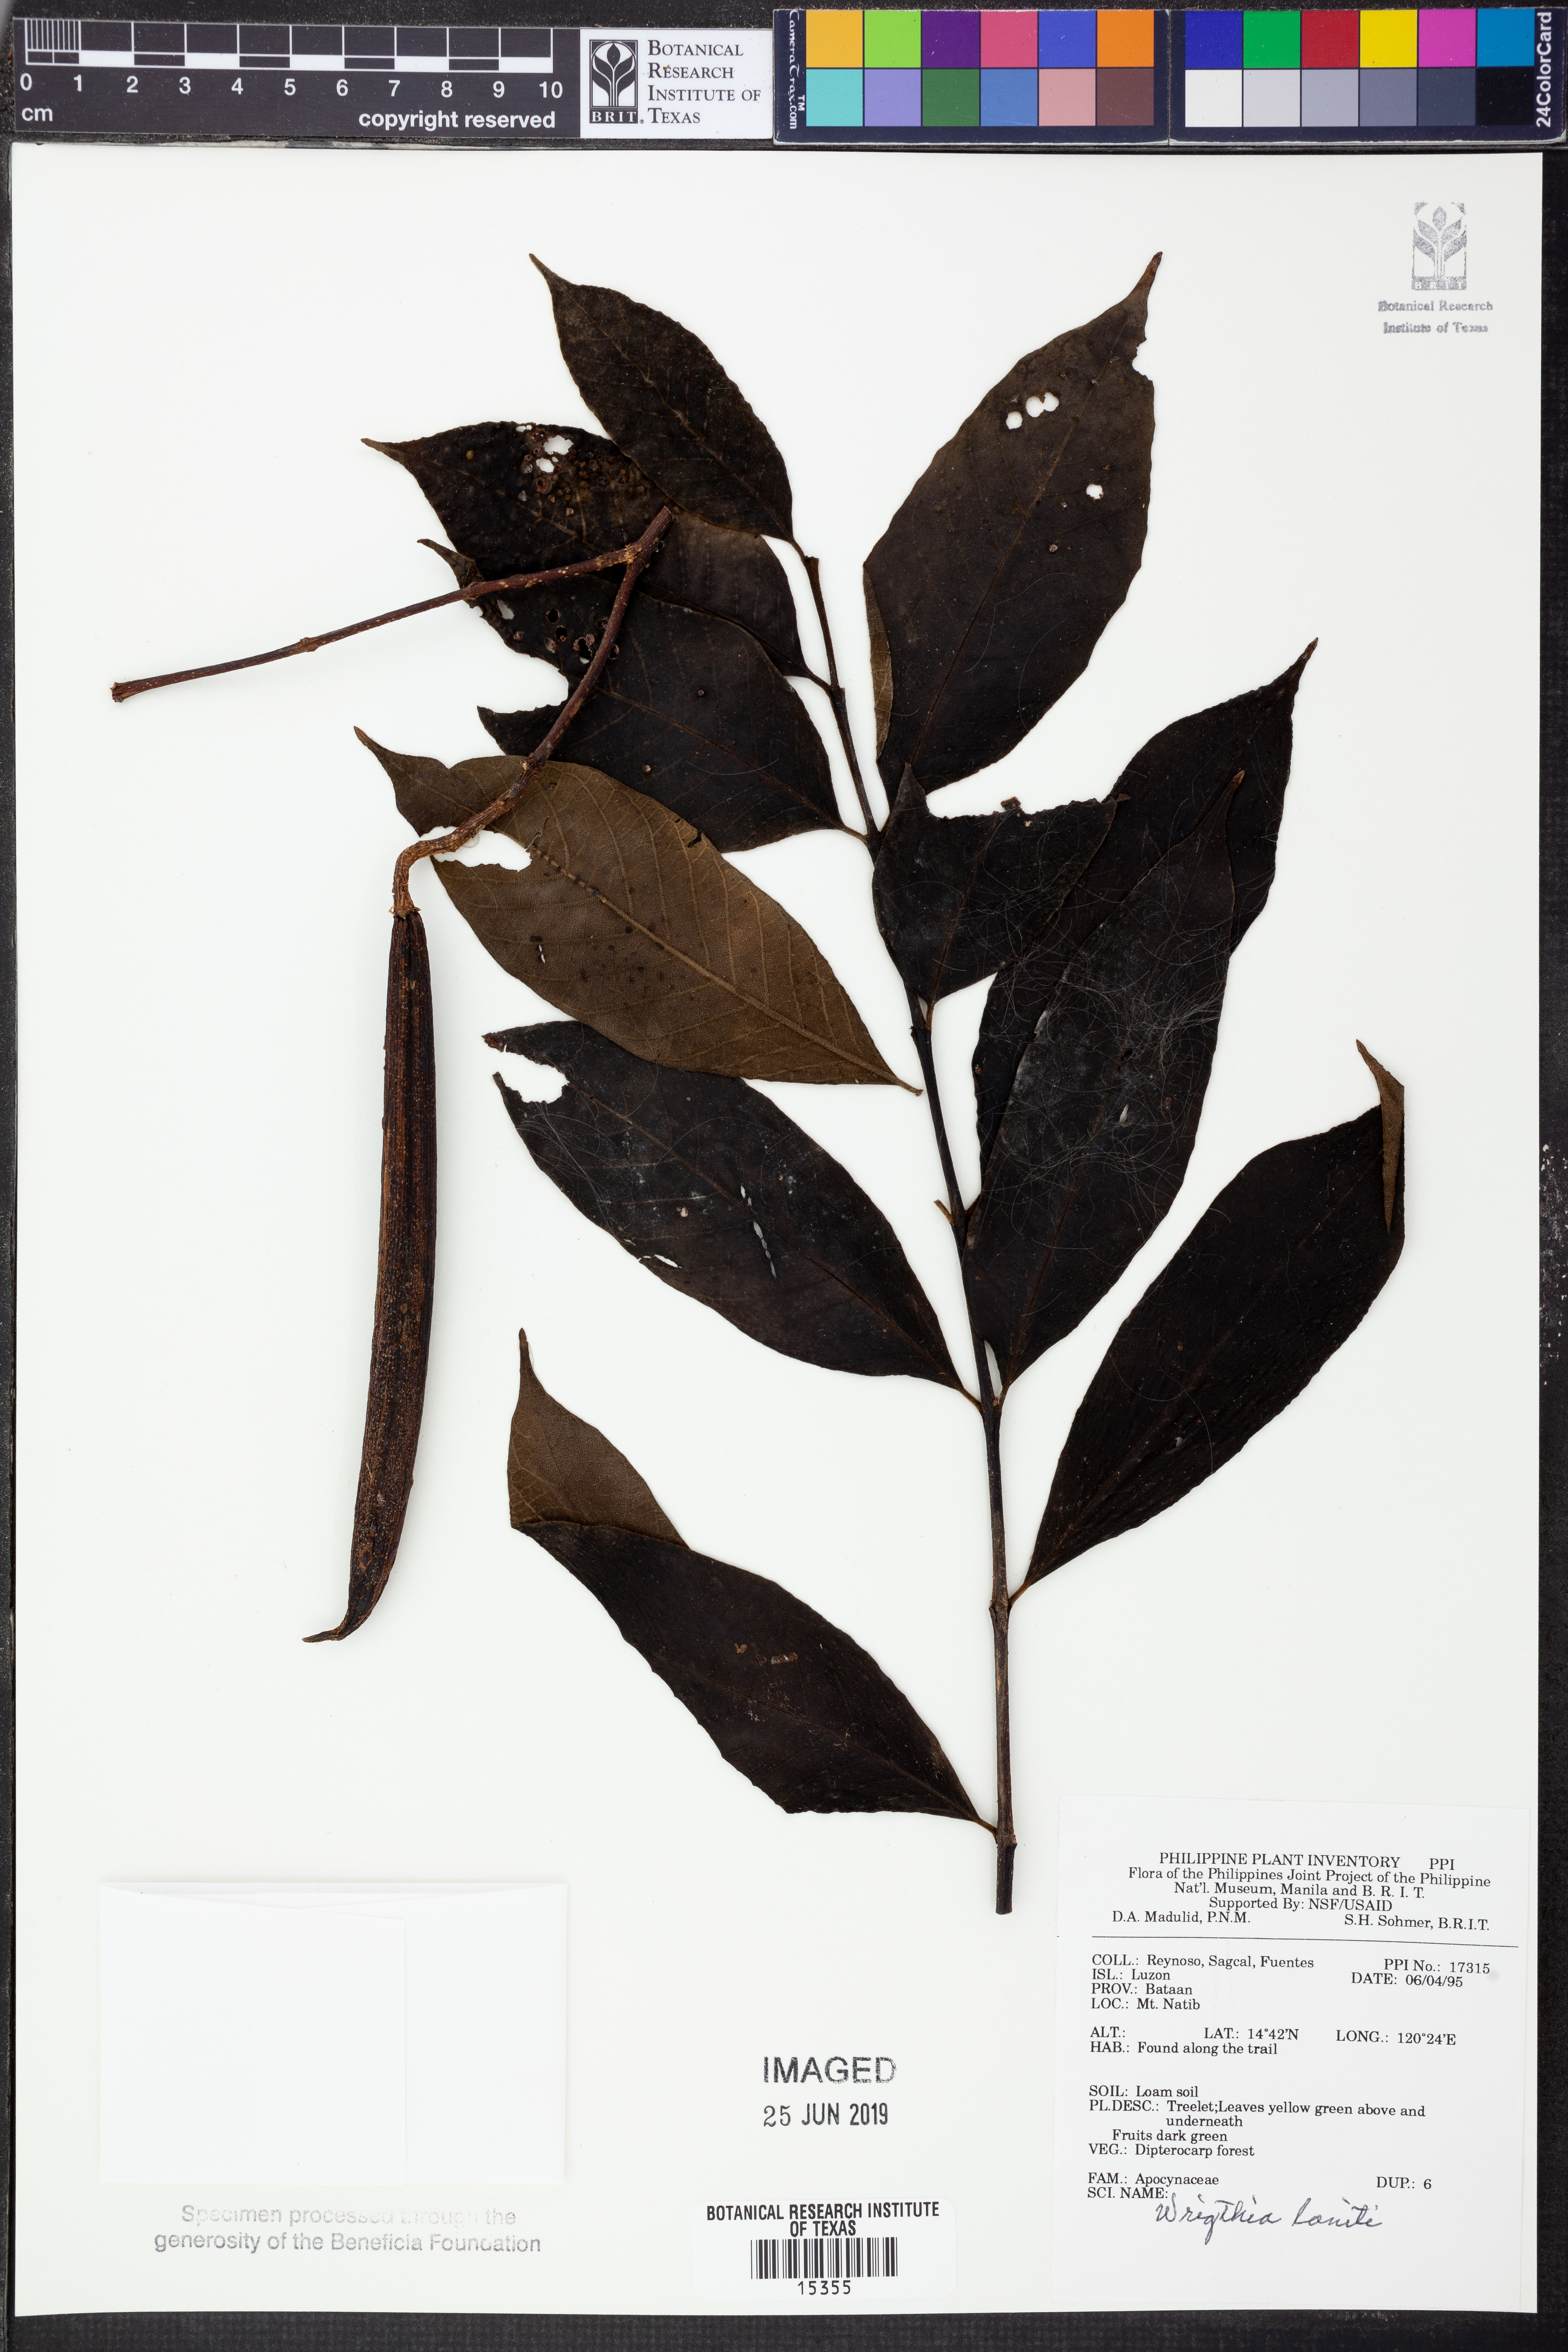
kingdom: Plantae
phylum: Tracheophyta
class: Magnoliopsida
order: Gentianales
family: Apocynaceae
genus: Wrightia
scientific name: Wrightia pubescens
